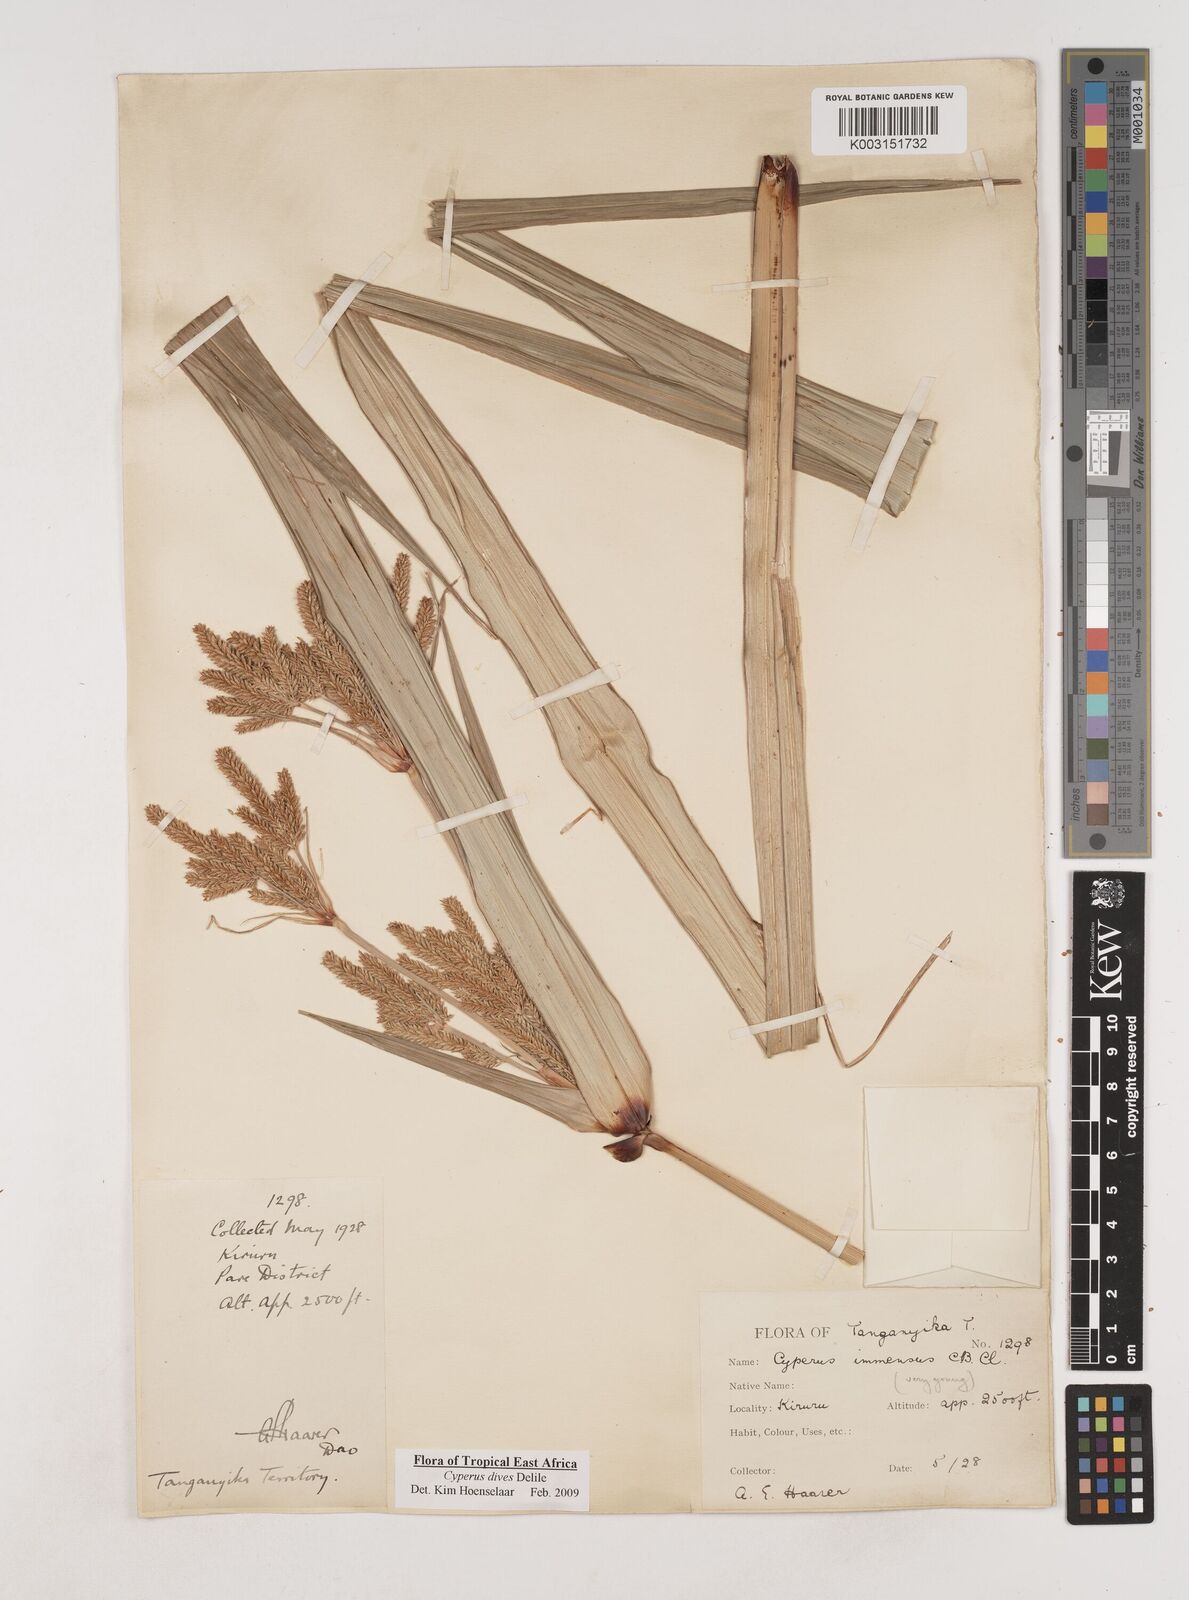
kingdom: Plantae
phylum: Tracheophyta
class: Liliopsida
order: Poales
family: Cyperaceae
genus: Cyperus
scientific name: Cyperus dives
